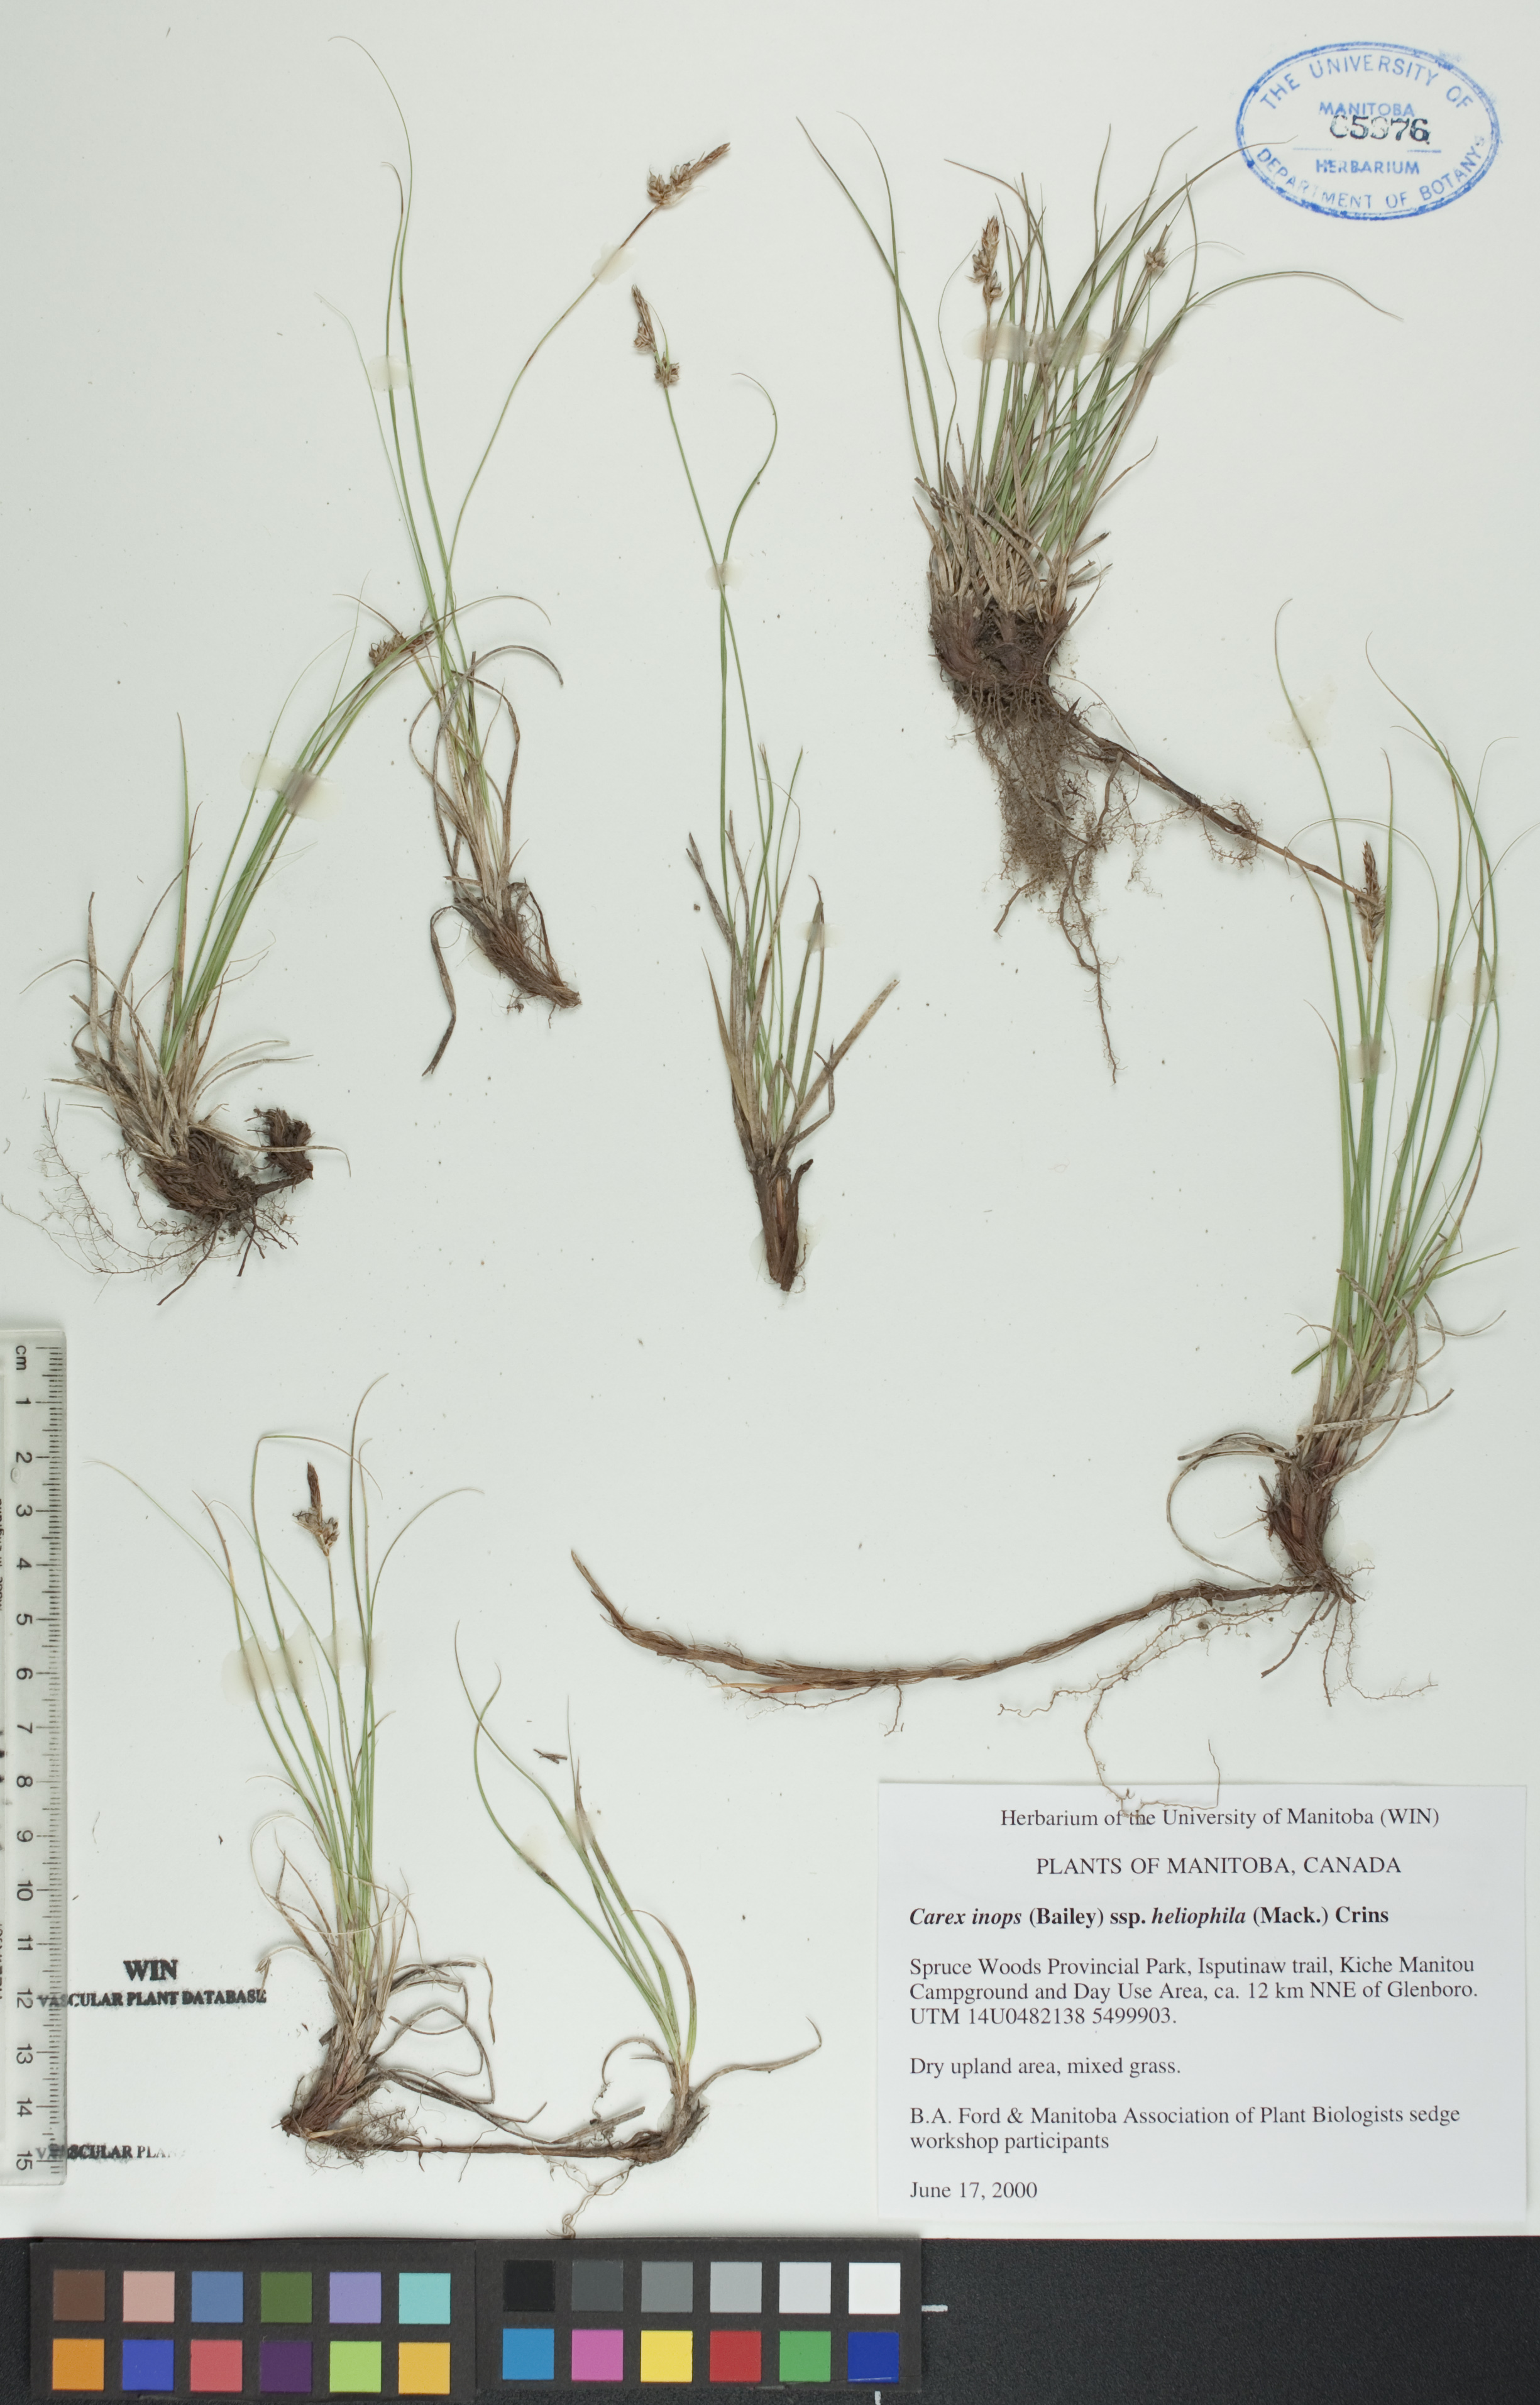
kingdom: Plantae
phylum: Tracheophyta
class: Liliopsida
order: Poales
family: Cyperaceae
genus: Carex
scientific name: Carex inops
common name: Long-stolon sedge
